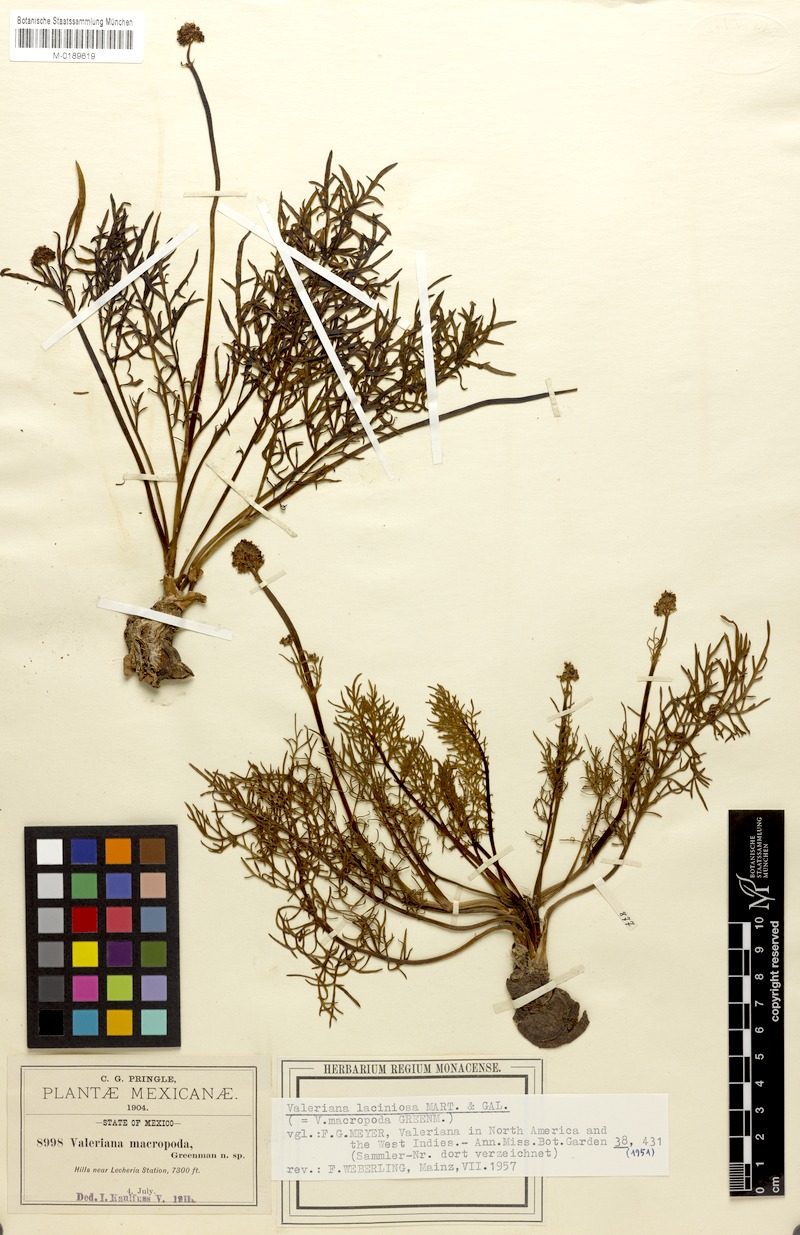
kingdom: Plantae
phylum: Tracheophyta
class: Magnoliopsida
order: Dipsacales
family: Caprifoliaceae
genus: Valeriana
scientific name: Valeriana laciniosa
